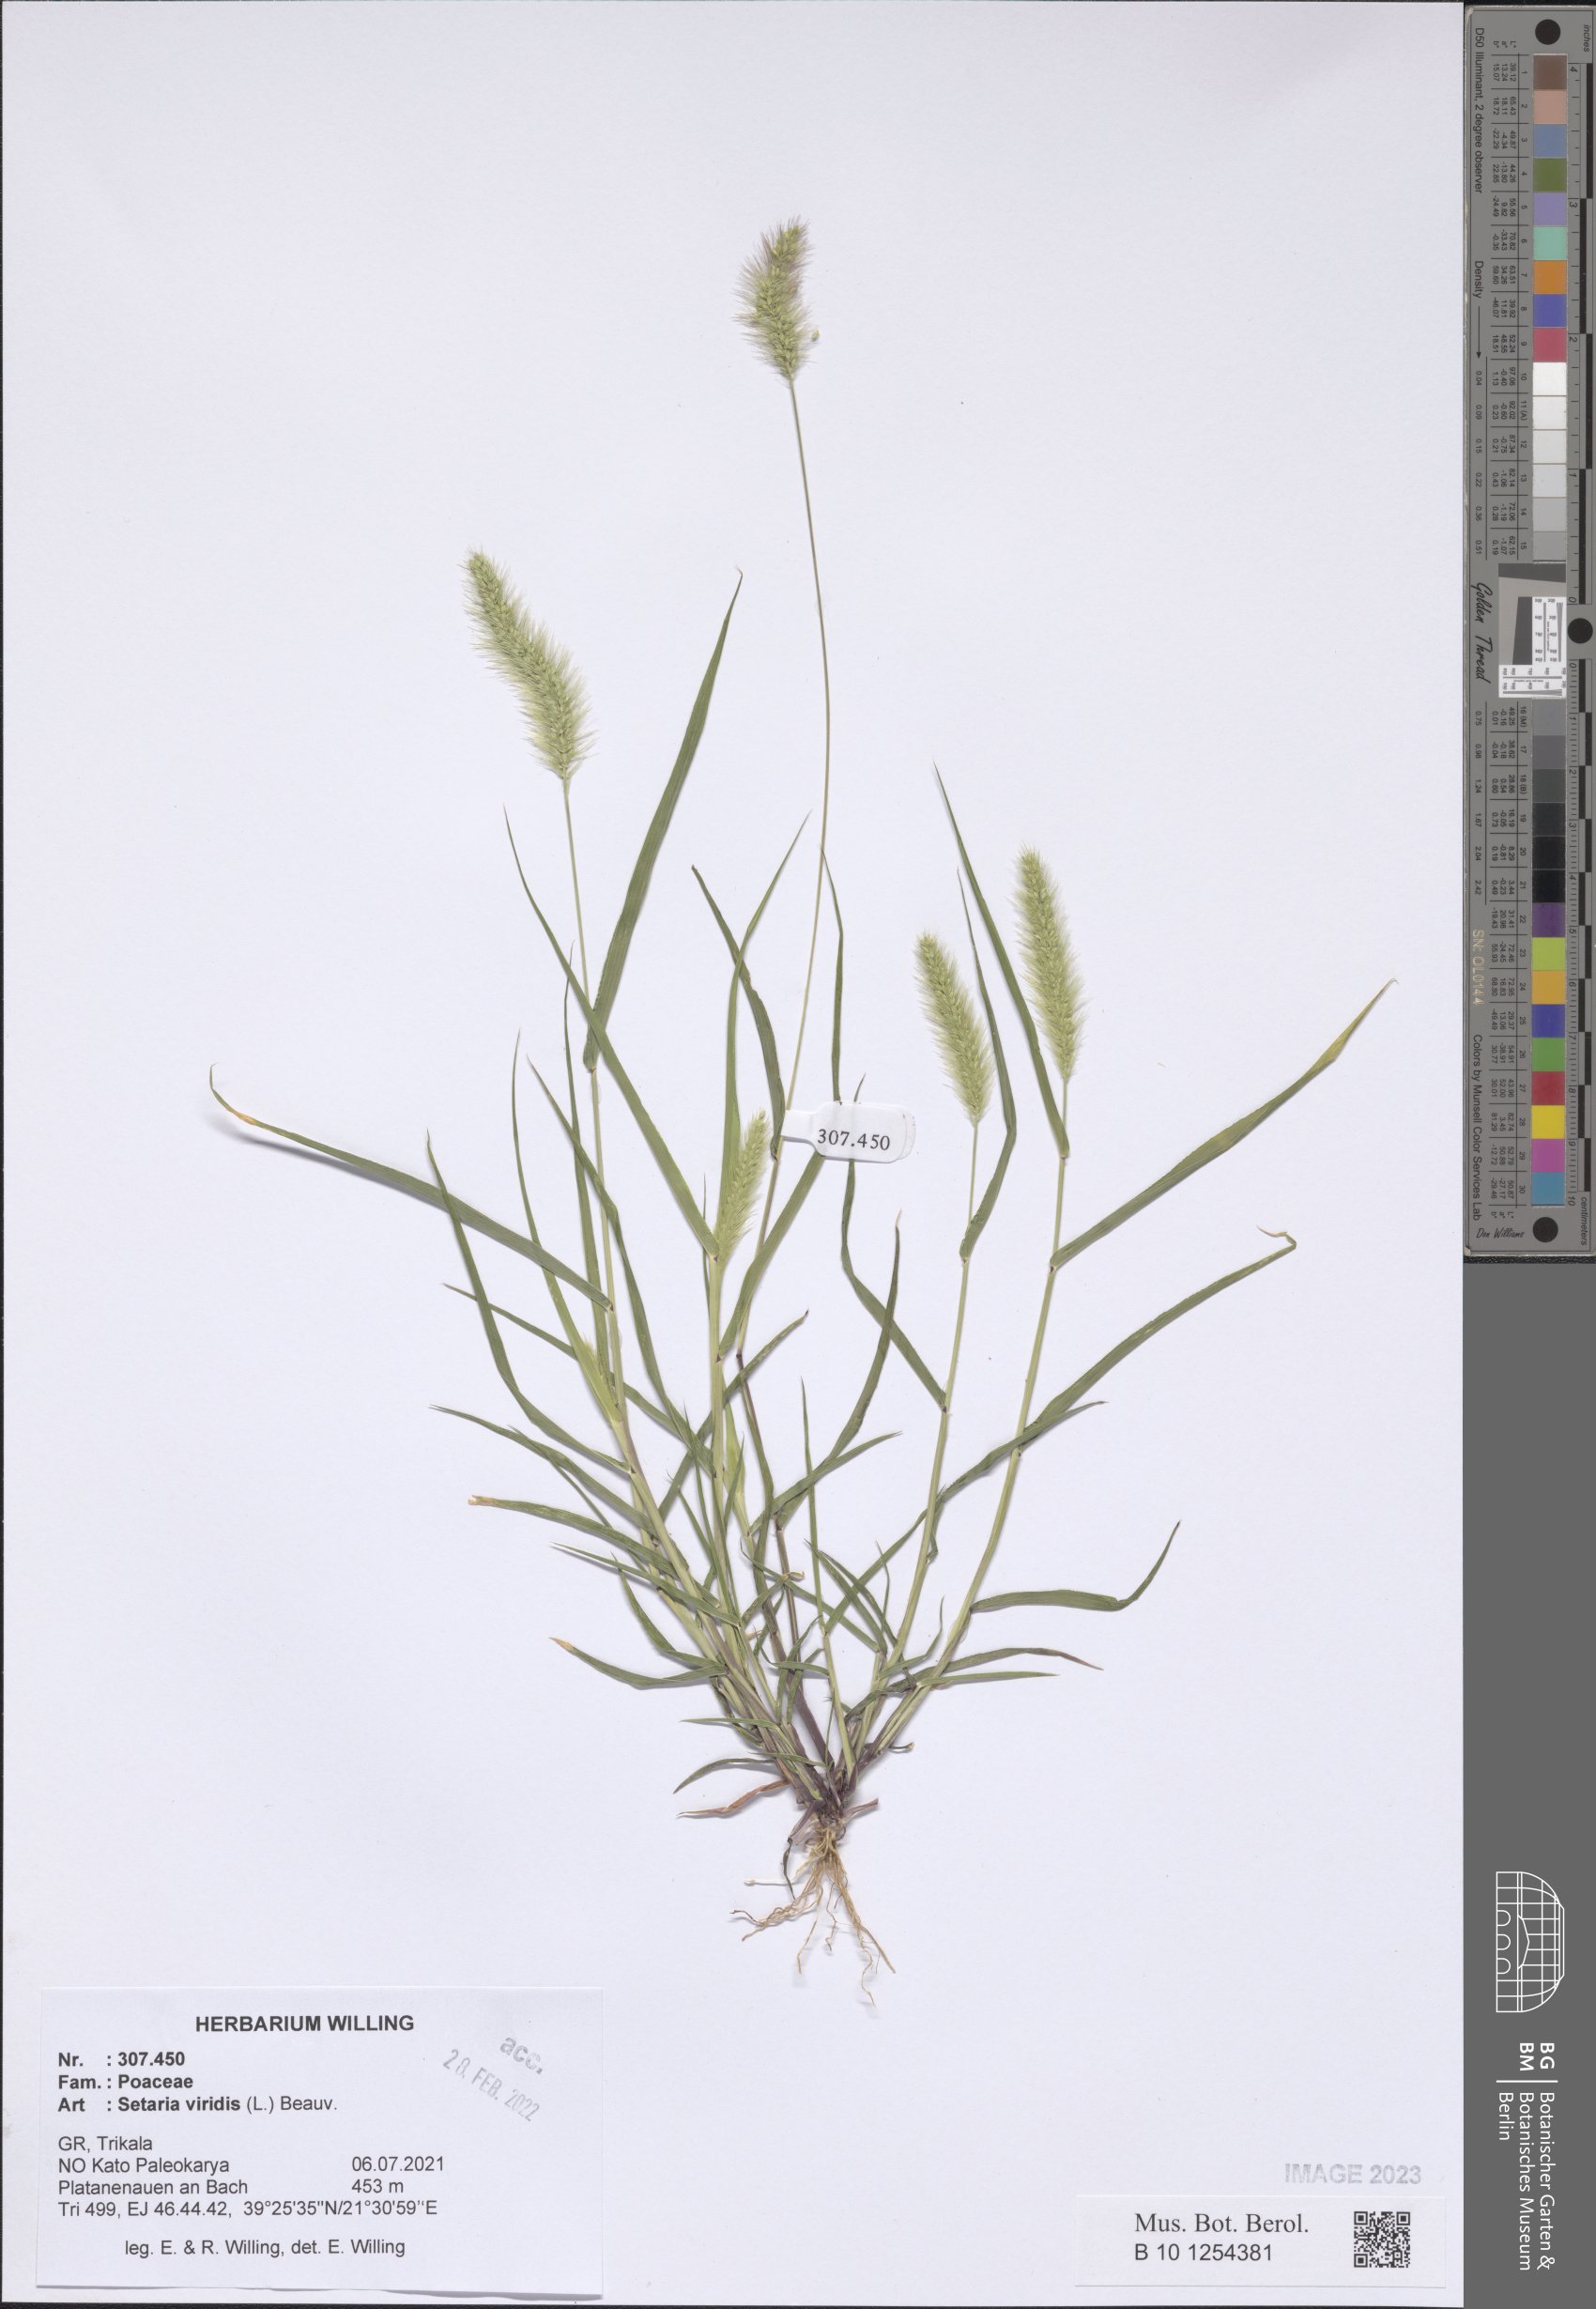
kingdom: Plantae
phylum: Tracheophyta
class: Liliopsida
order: Poales
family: Poaceae
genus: Setaria
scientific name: Setaria viridis
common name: Green bristlegrass
